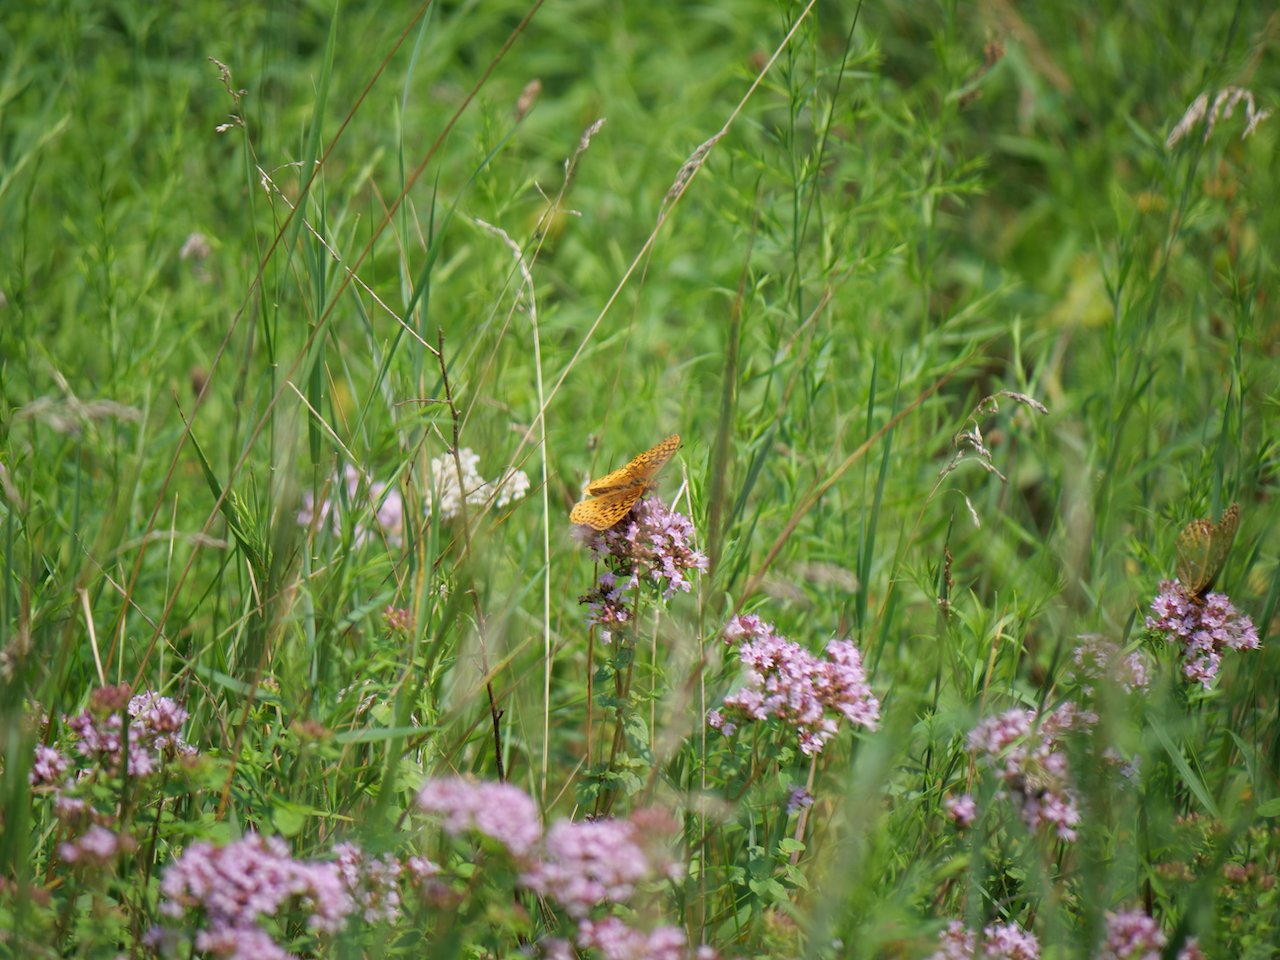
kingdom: Animalia
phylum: Arthropoda
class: Insecta
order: Lepidoptera
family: Nymphalidae
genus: Speyeria
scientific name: Speyeria cybele
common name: Great Spangled Fritillary
